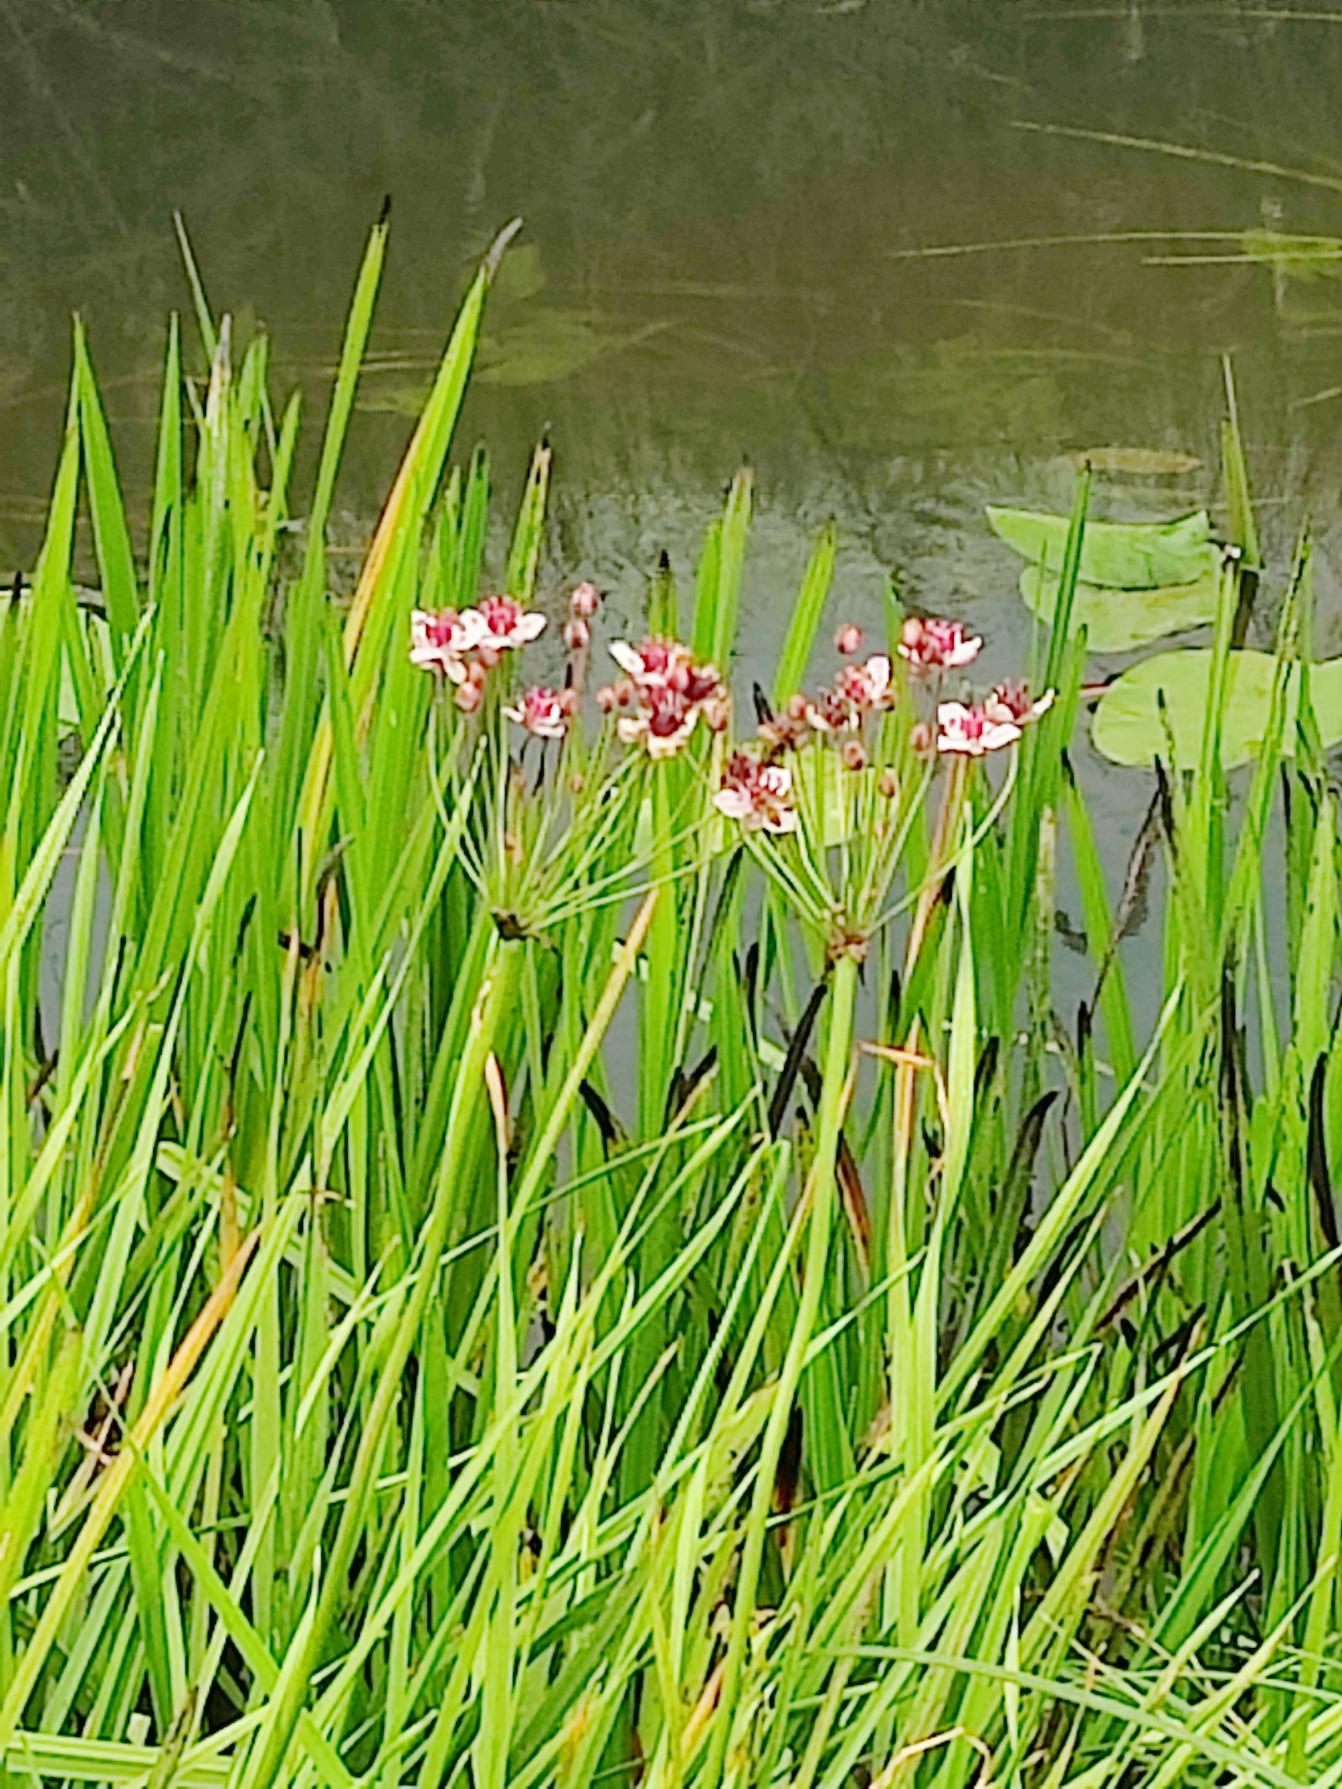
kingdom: Plantae
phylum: Tracheophyta
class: Liliopsida
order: Alismatales
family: Butomaceae
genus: Butomus
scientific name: Butomus umbellatus
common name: Brudelys
